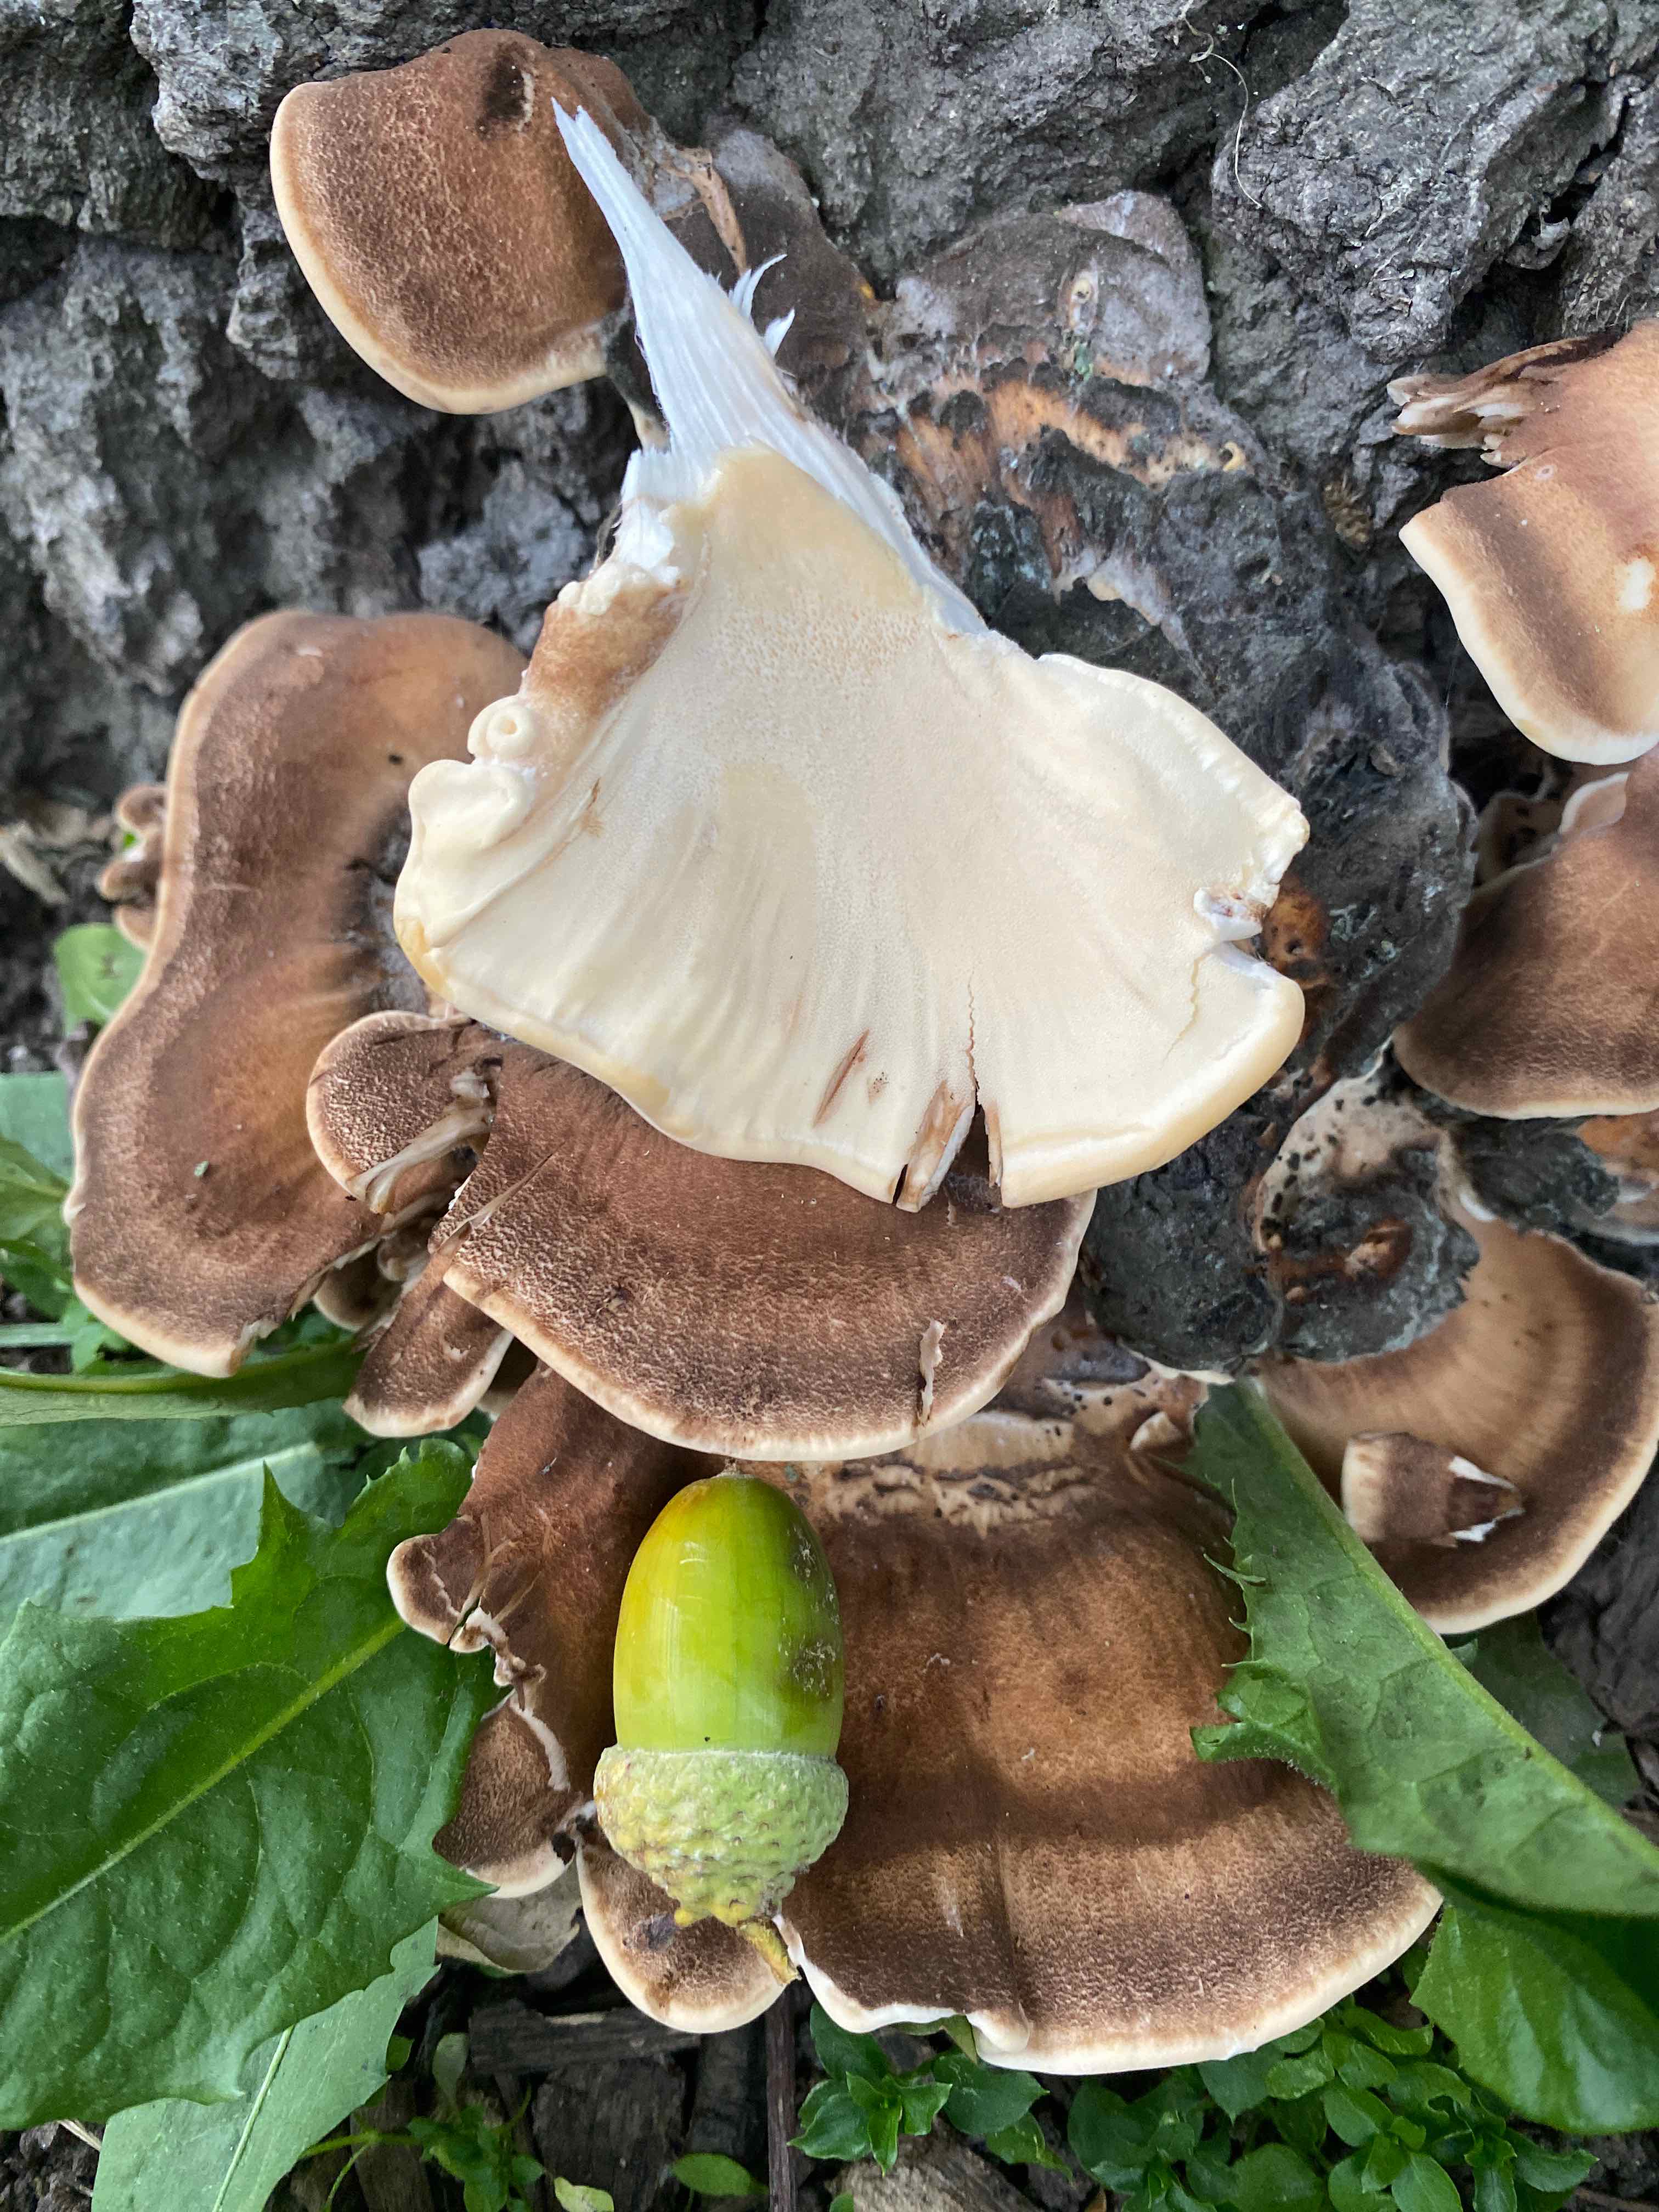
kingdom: Fungi
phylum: Basidiomycota
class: Agaricomycetes
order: Polyporales
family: Meripilaceae
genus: Meripilus
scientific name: Meripilus giganteus
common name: kæmpeporesvamp
